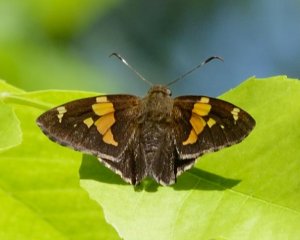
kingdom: Animalia
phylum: Arthropoda
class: Insecta
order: Lepidoptera
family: Hesperiidae
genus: Epargyreus
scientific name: Epargyreus clarus
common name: Silver-spotted Skipper
